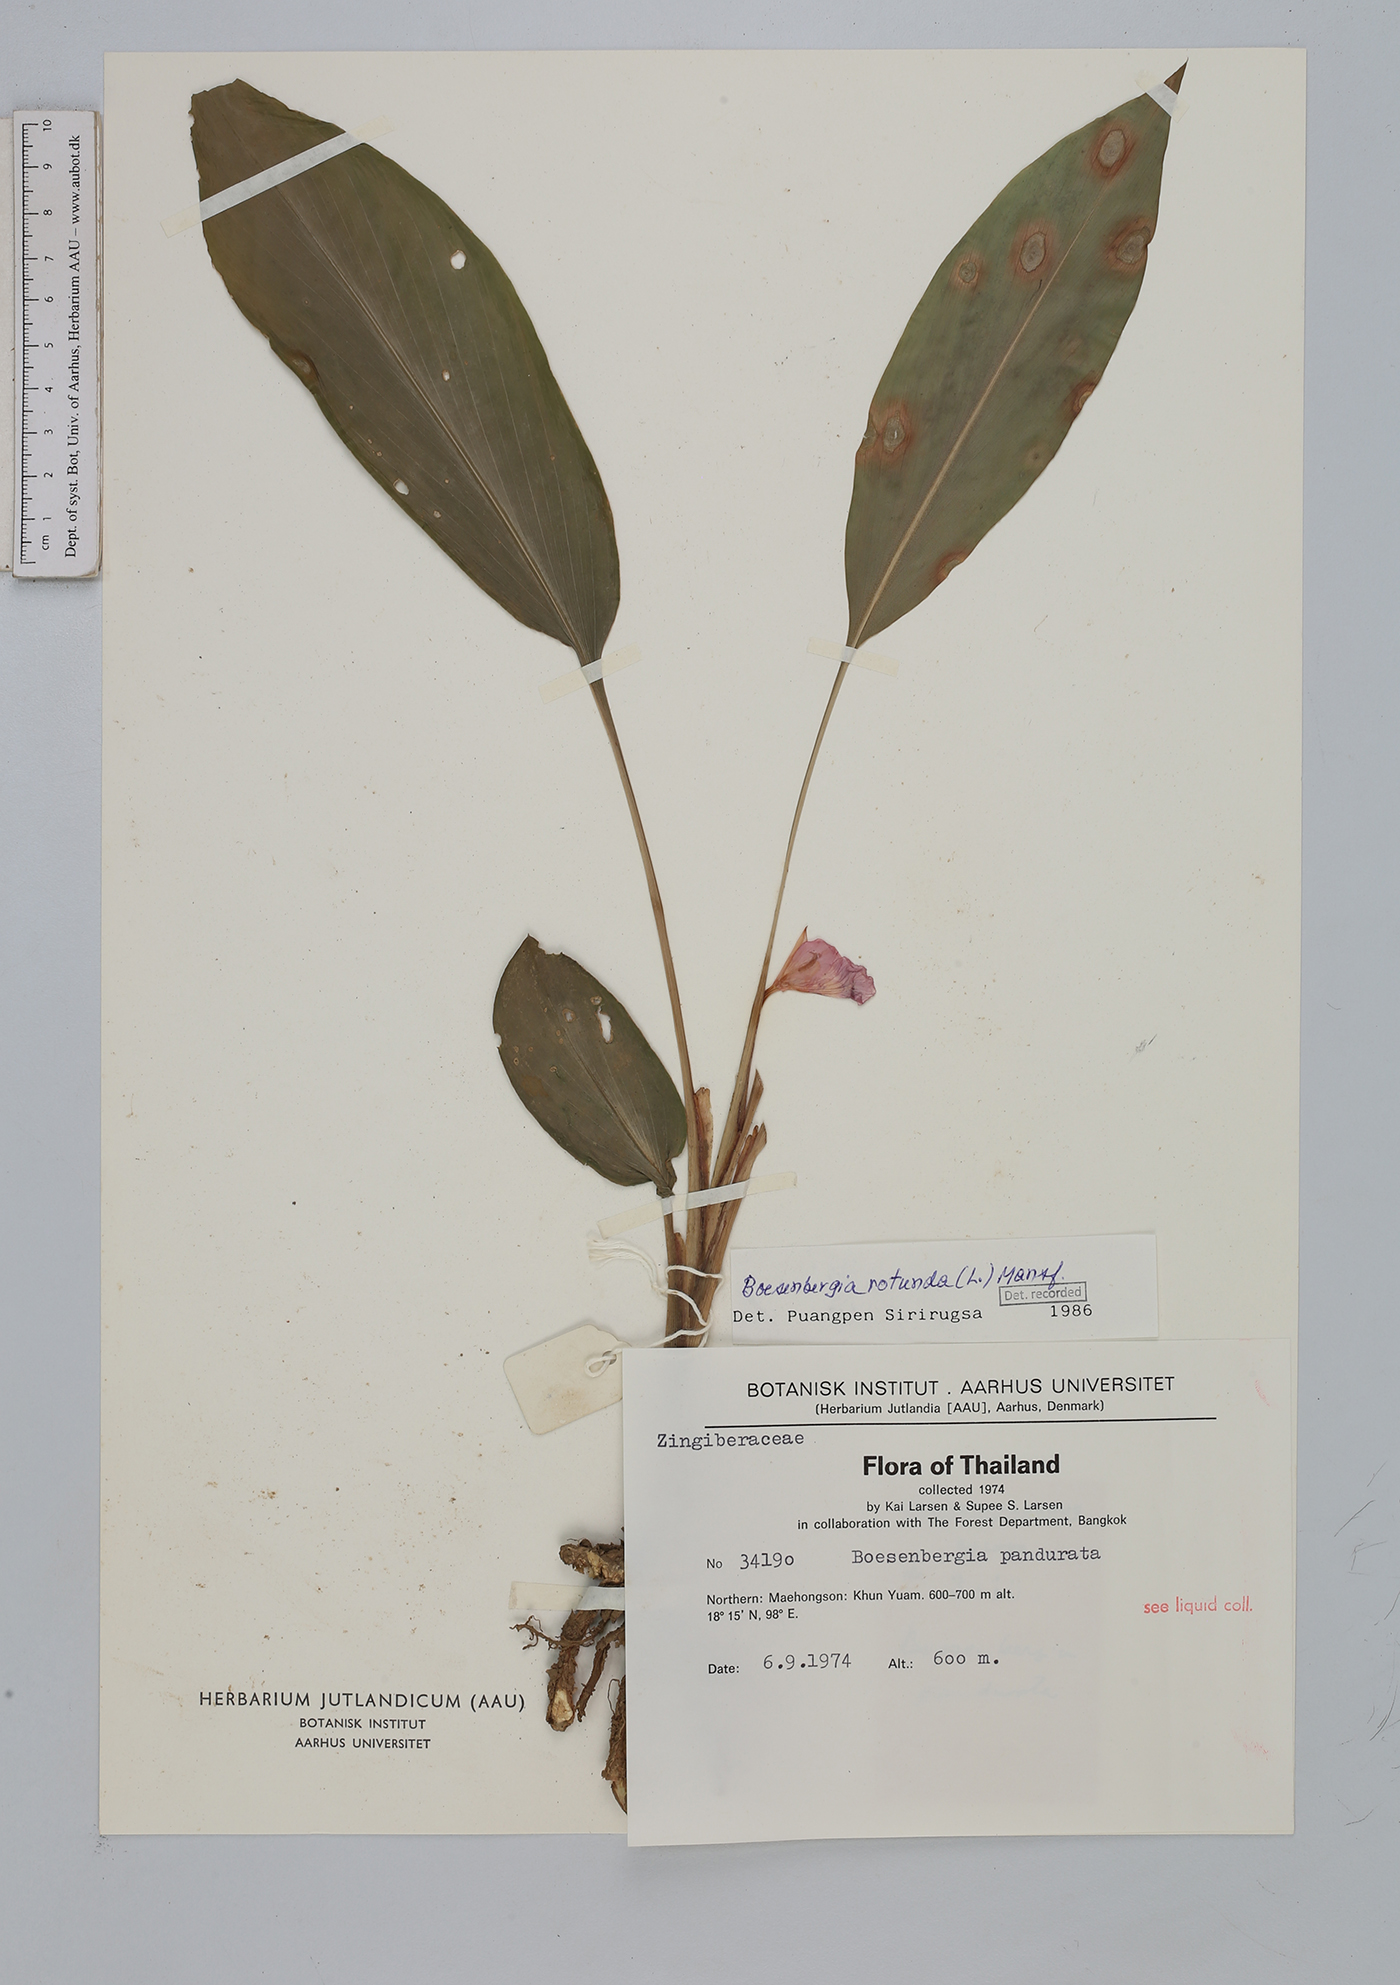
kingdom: Plantae
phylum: Tracheophyta
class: Liliopsida
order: Zingiberales
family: Zingiberaceae
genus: Boesenbergia
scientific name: Boesenbergia rotunda
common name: Chinese ginger
